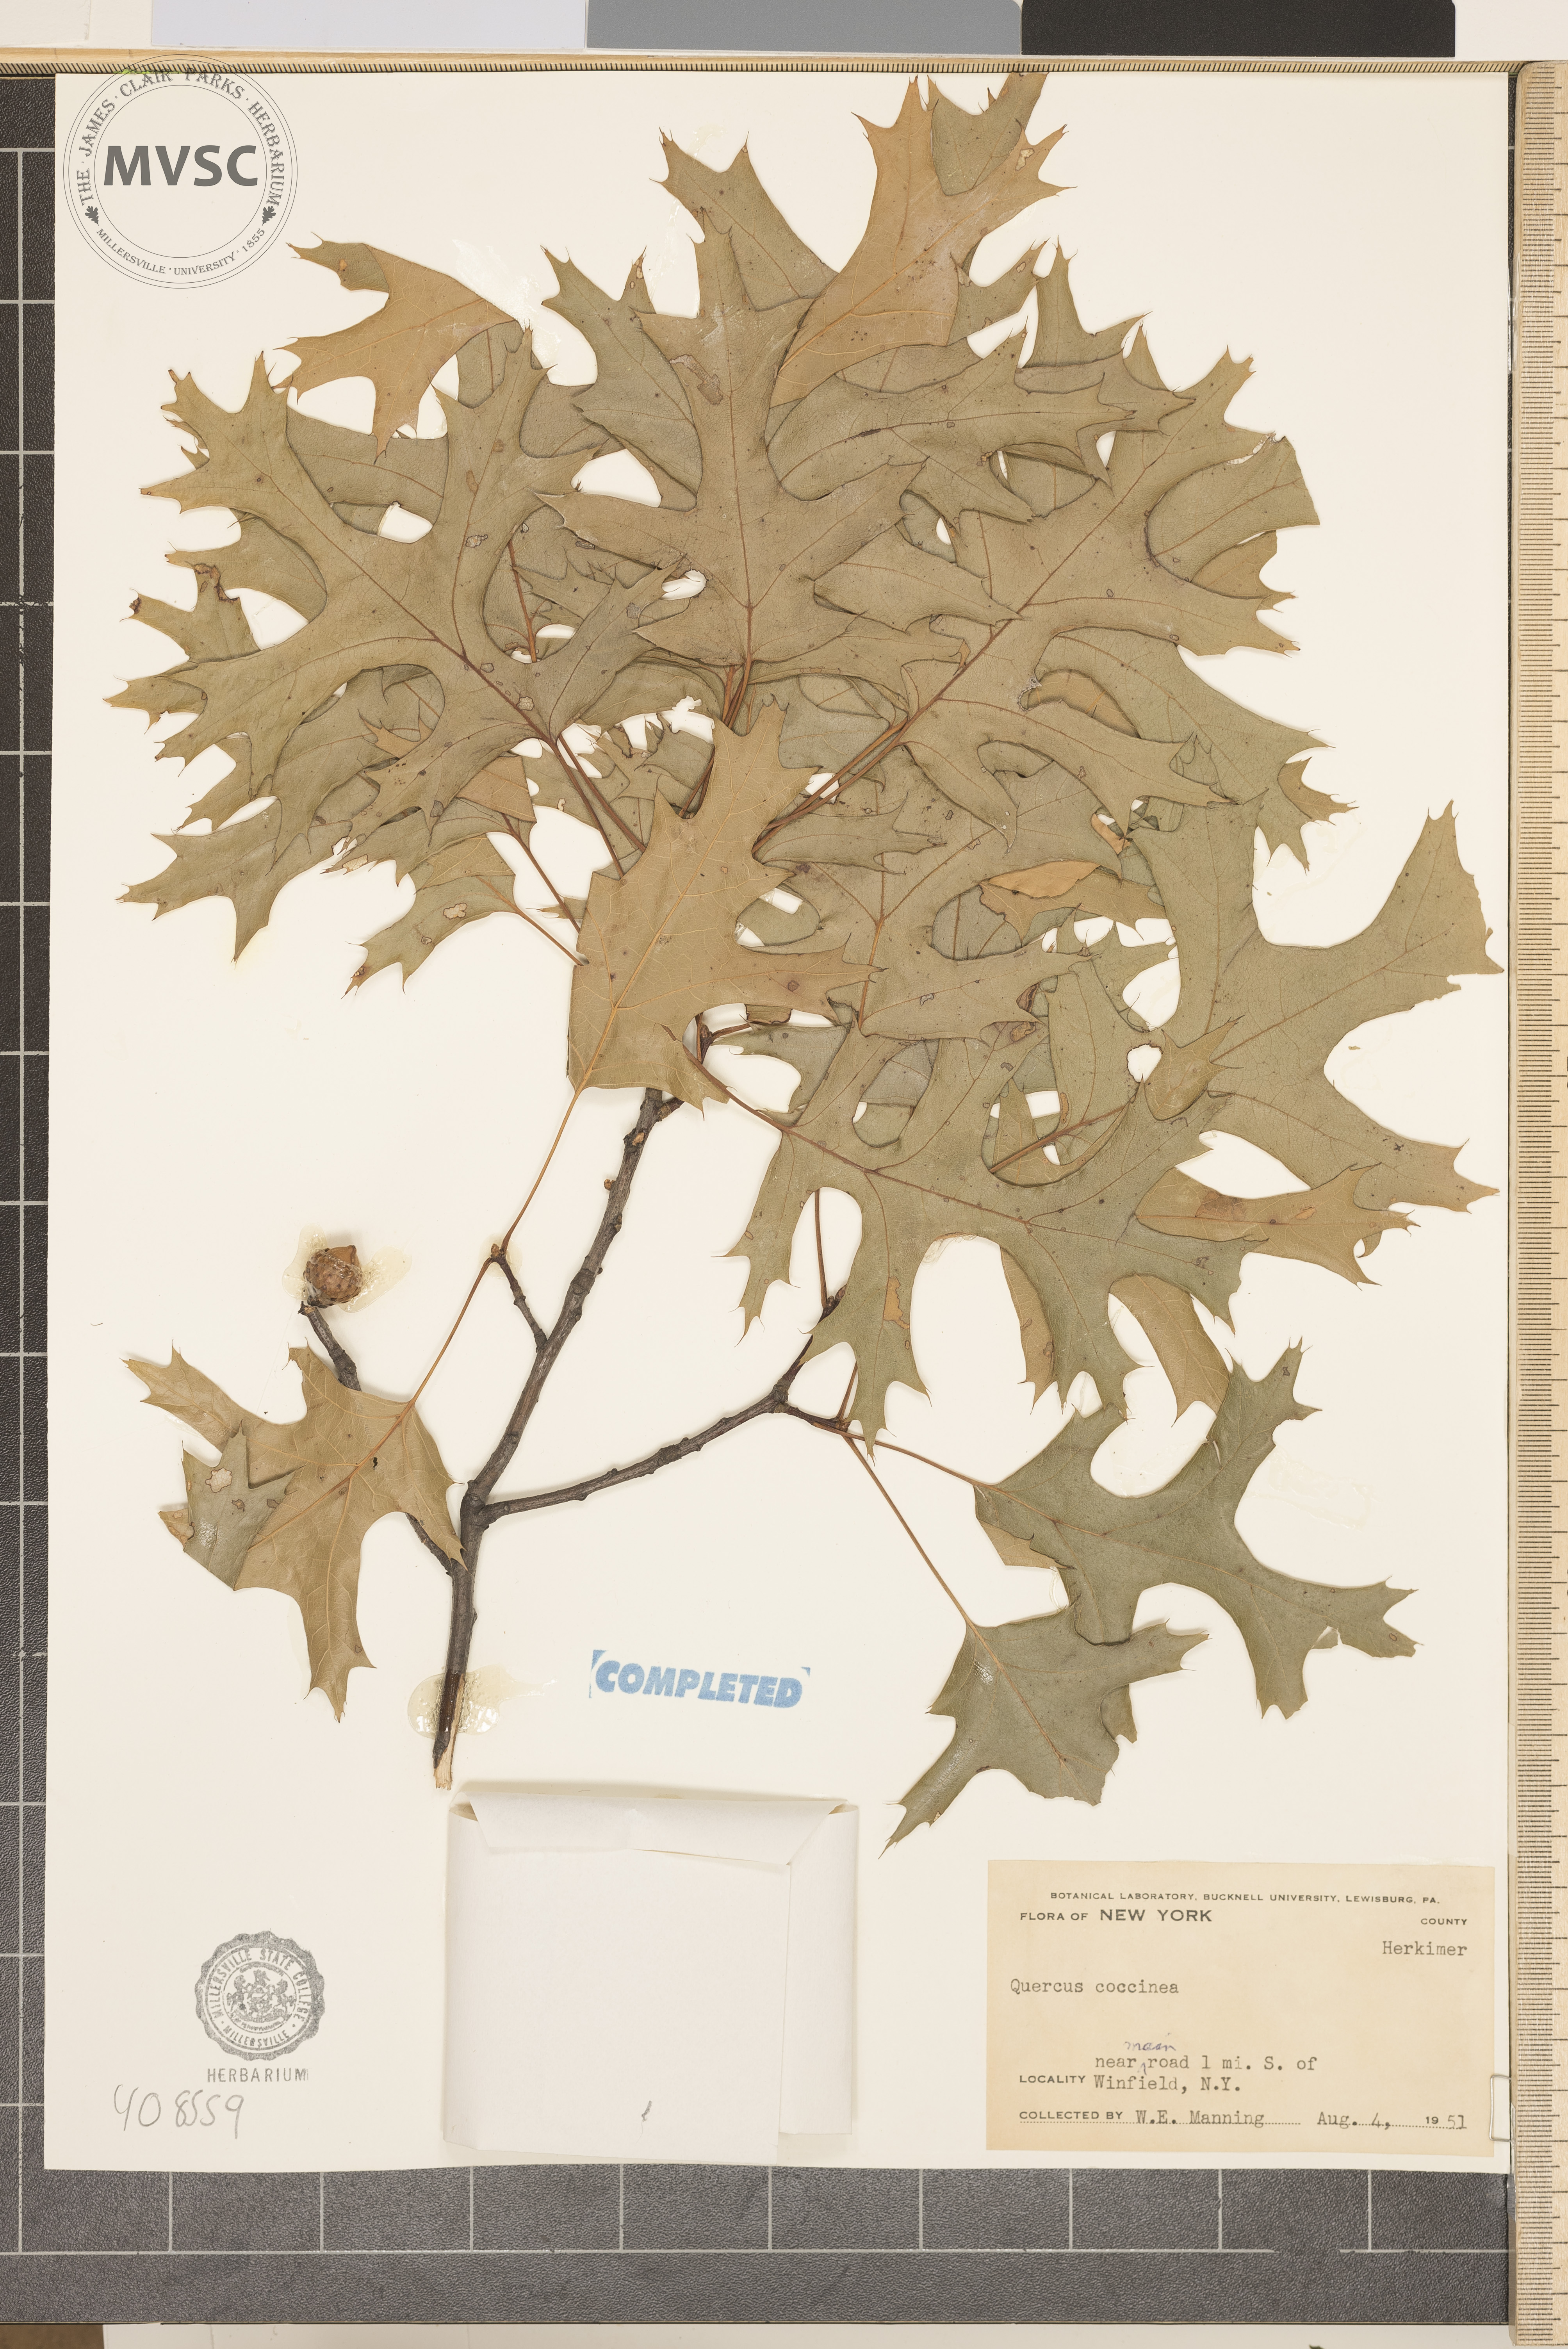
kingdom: Plantae
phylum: Tracheophyta
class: Magnoliopsida
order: Fagales
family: Fagaceae
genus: Quercus
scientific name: Quercus coccinea
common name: scarlet oak
